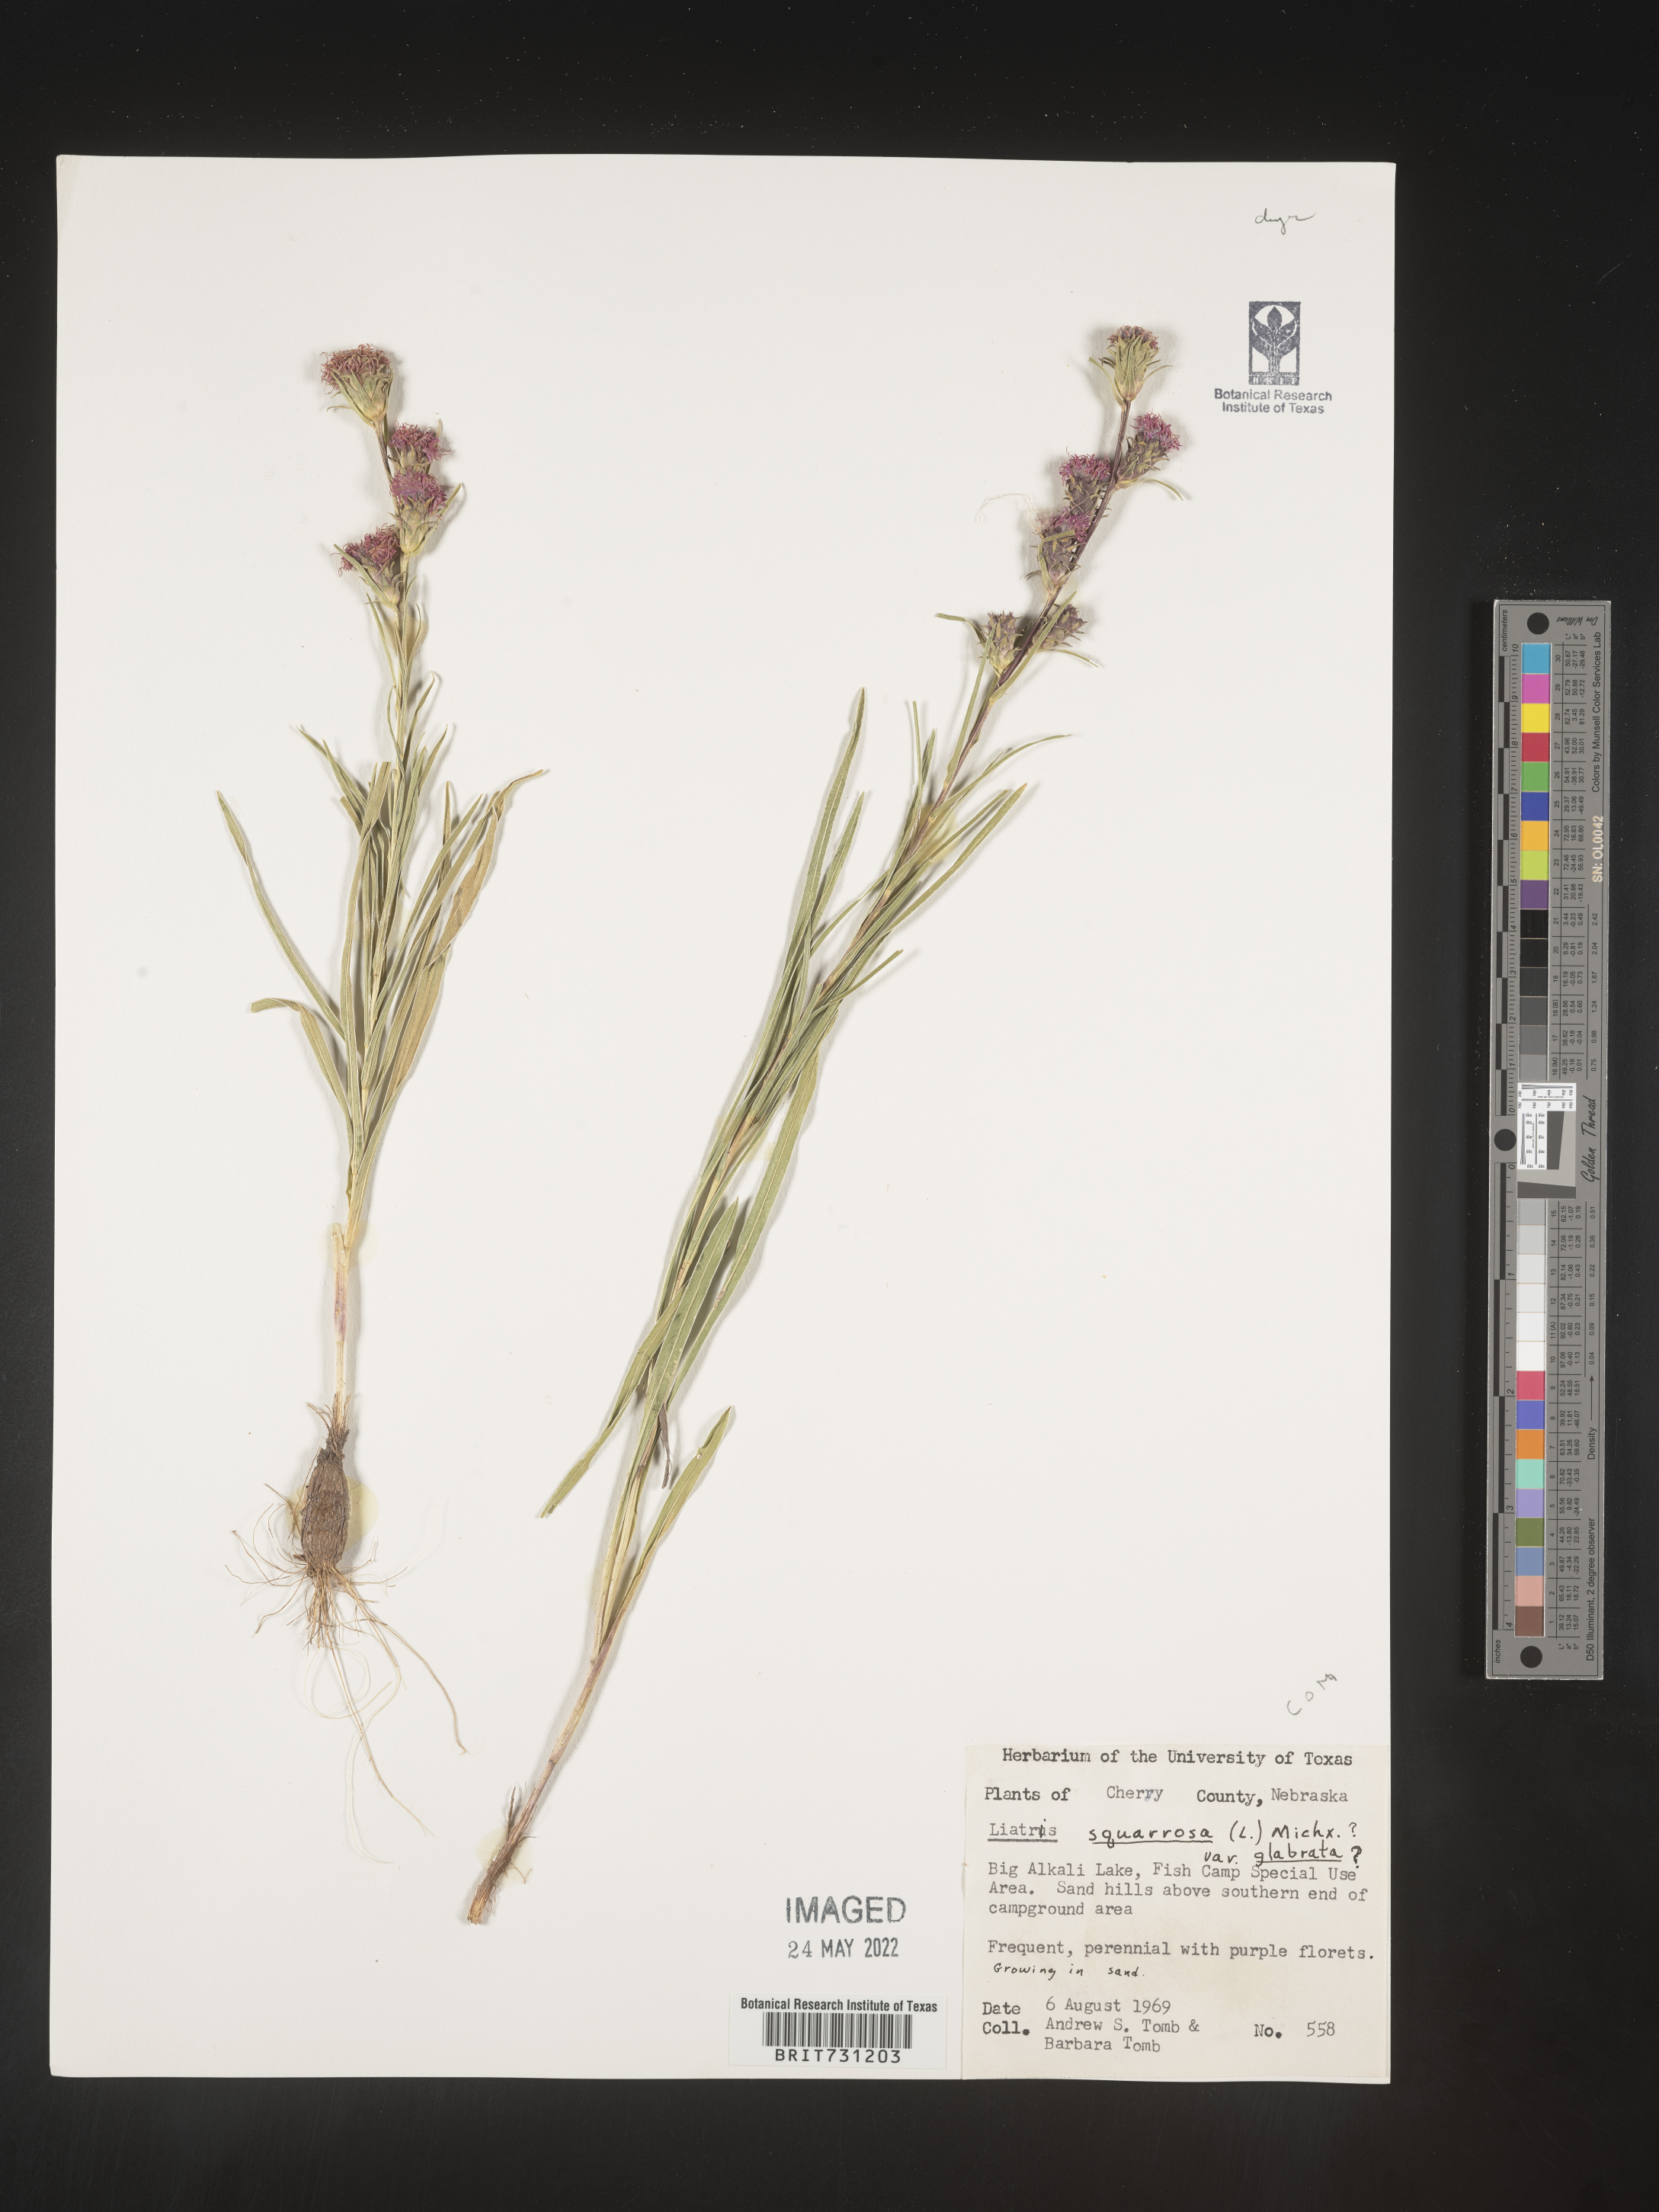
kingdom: Plantae
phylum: Tracheophyta
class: Magnoliopsida
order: Asterales
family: Asteraceae
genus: Liatris
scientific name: Liatris squarrosa
